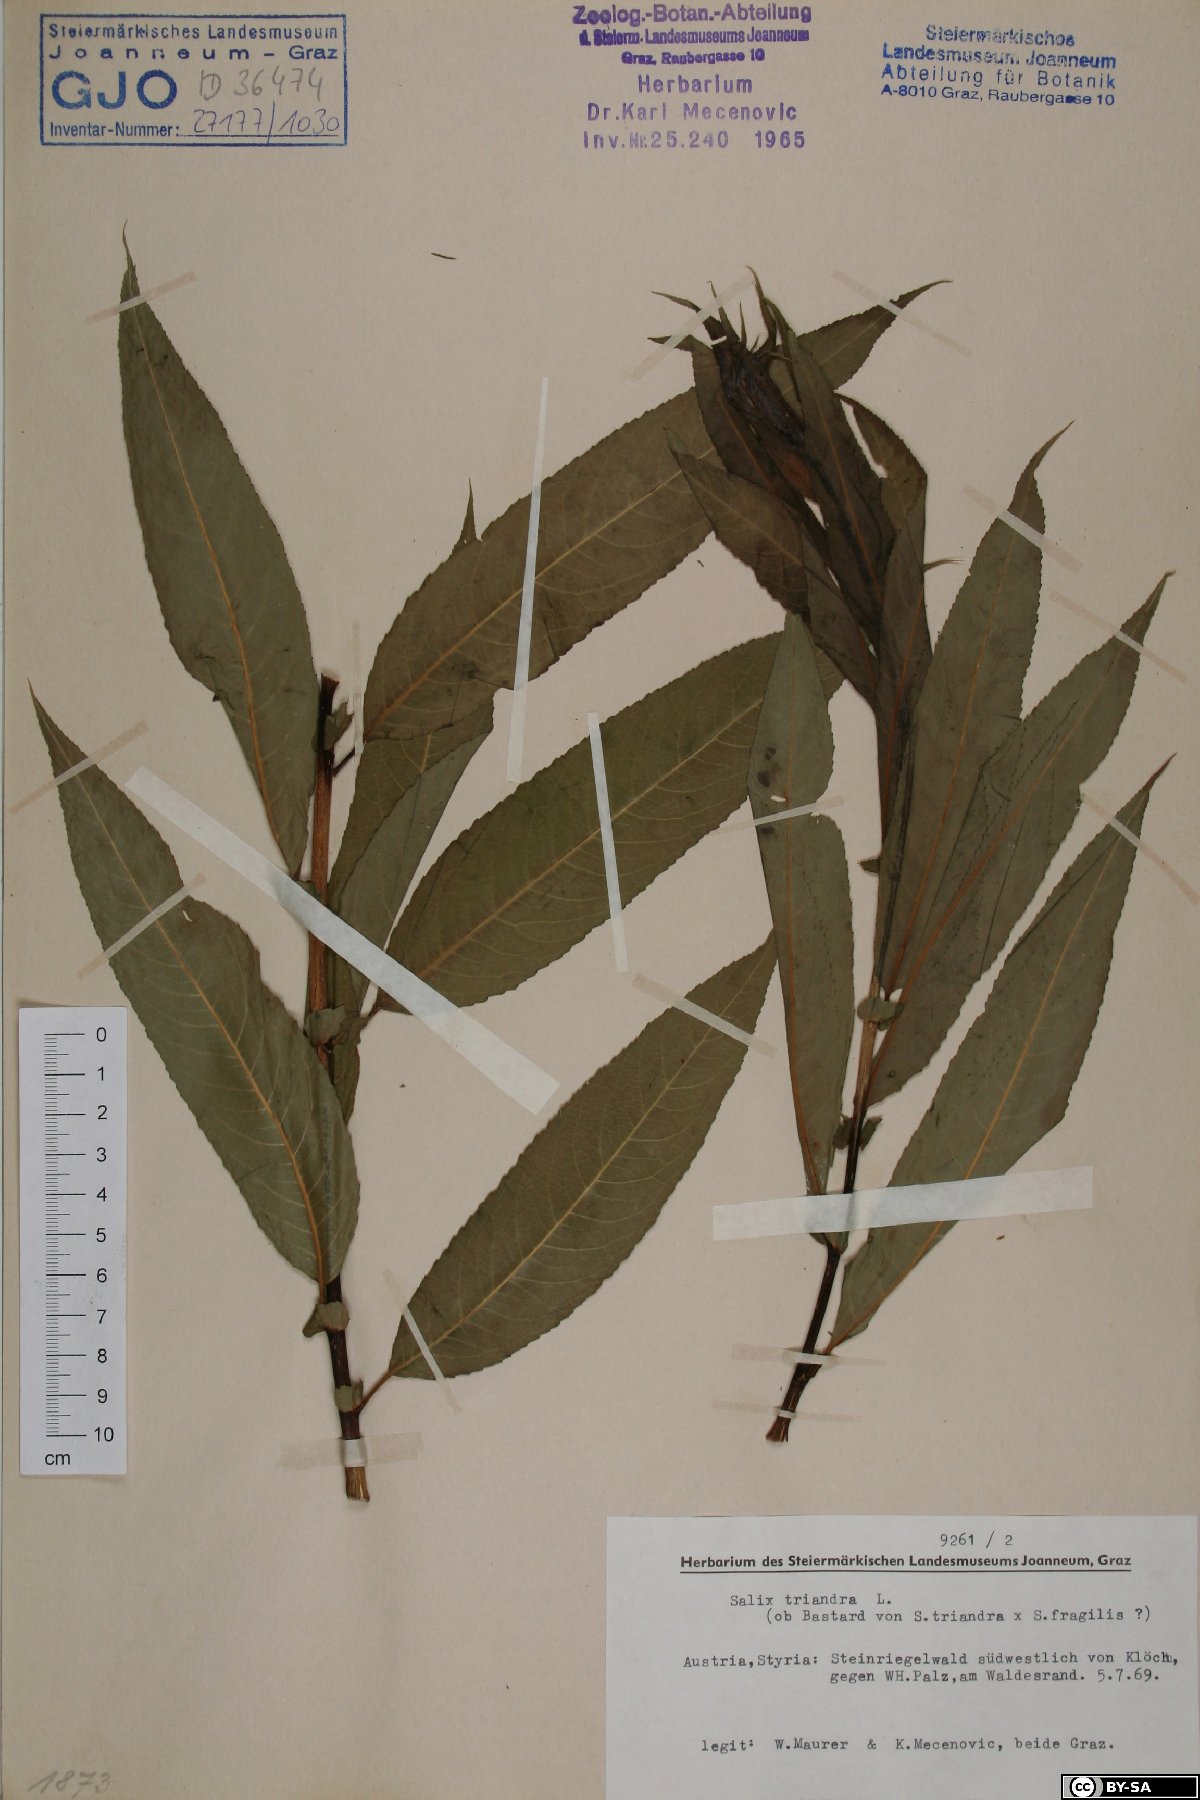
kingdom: Plantae
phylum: Tracheophyta
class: Magnoliopsida
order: Malpighiales
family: Salicaceae
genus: Salix
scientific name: Salix triandra
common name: Almond willow
